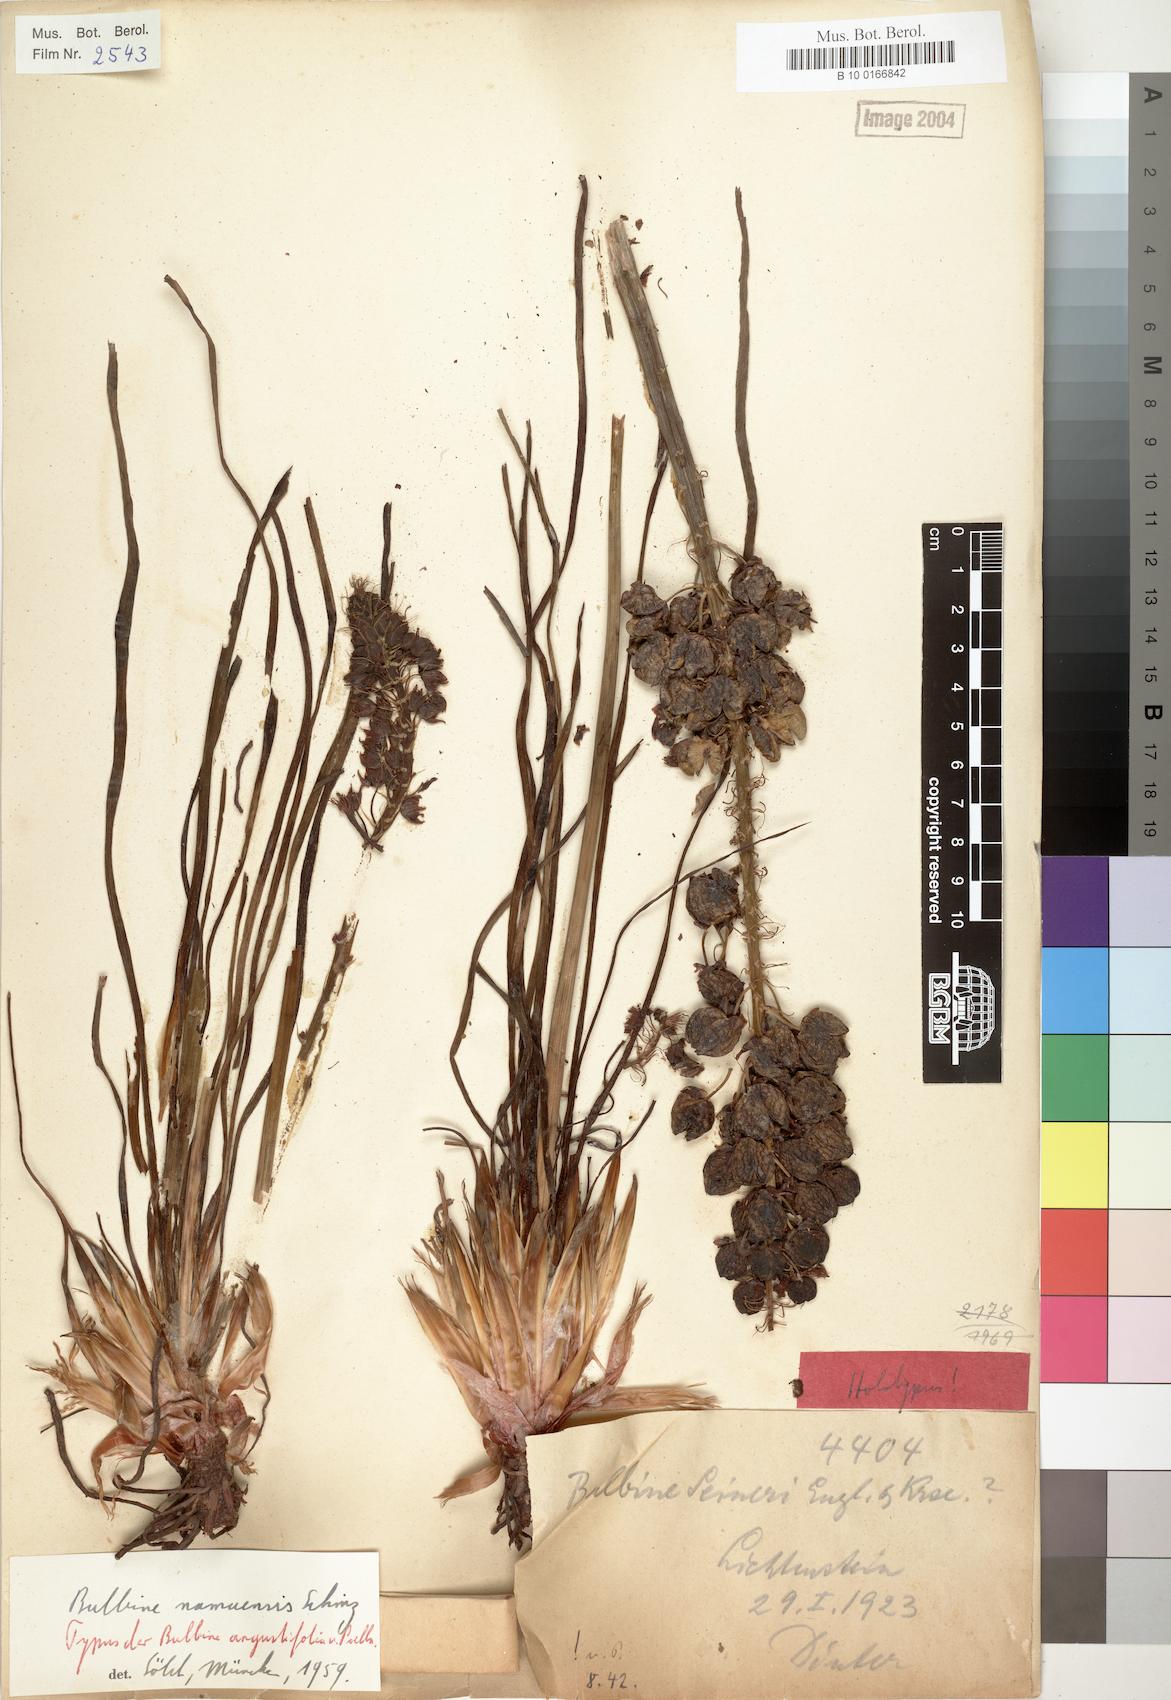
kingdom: Plantae
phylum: Tracheophyta
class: Liliopsida
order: Asparagales
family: Asphodelaceae
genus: Bulbine
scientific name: Bulbine angustifolia
